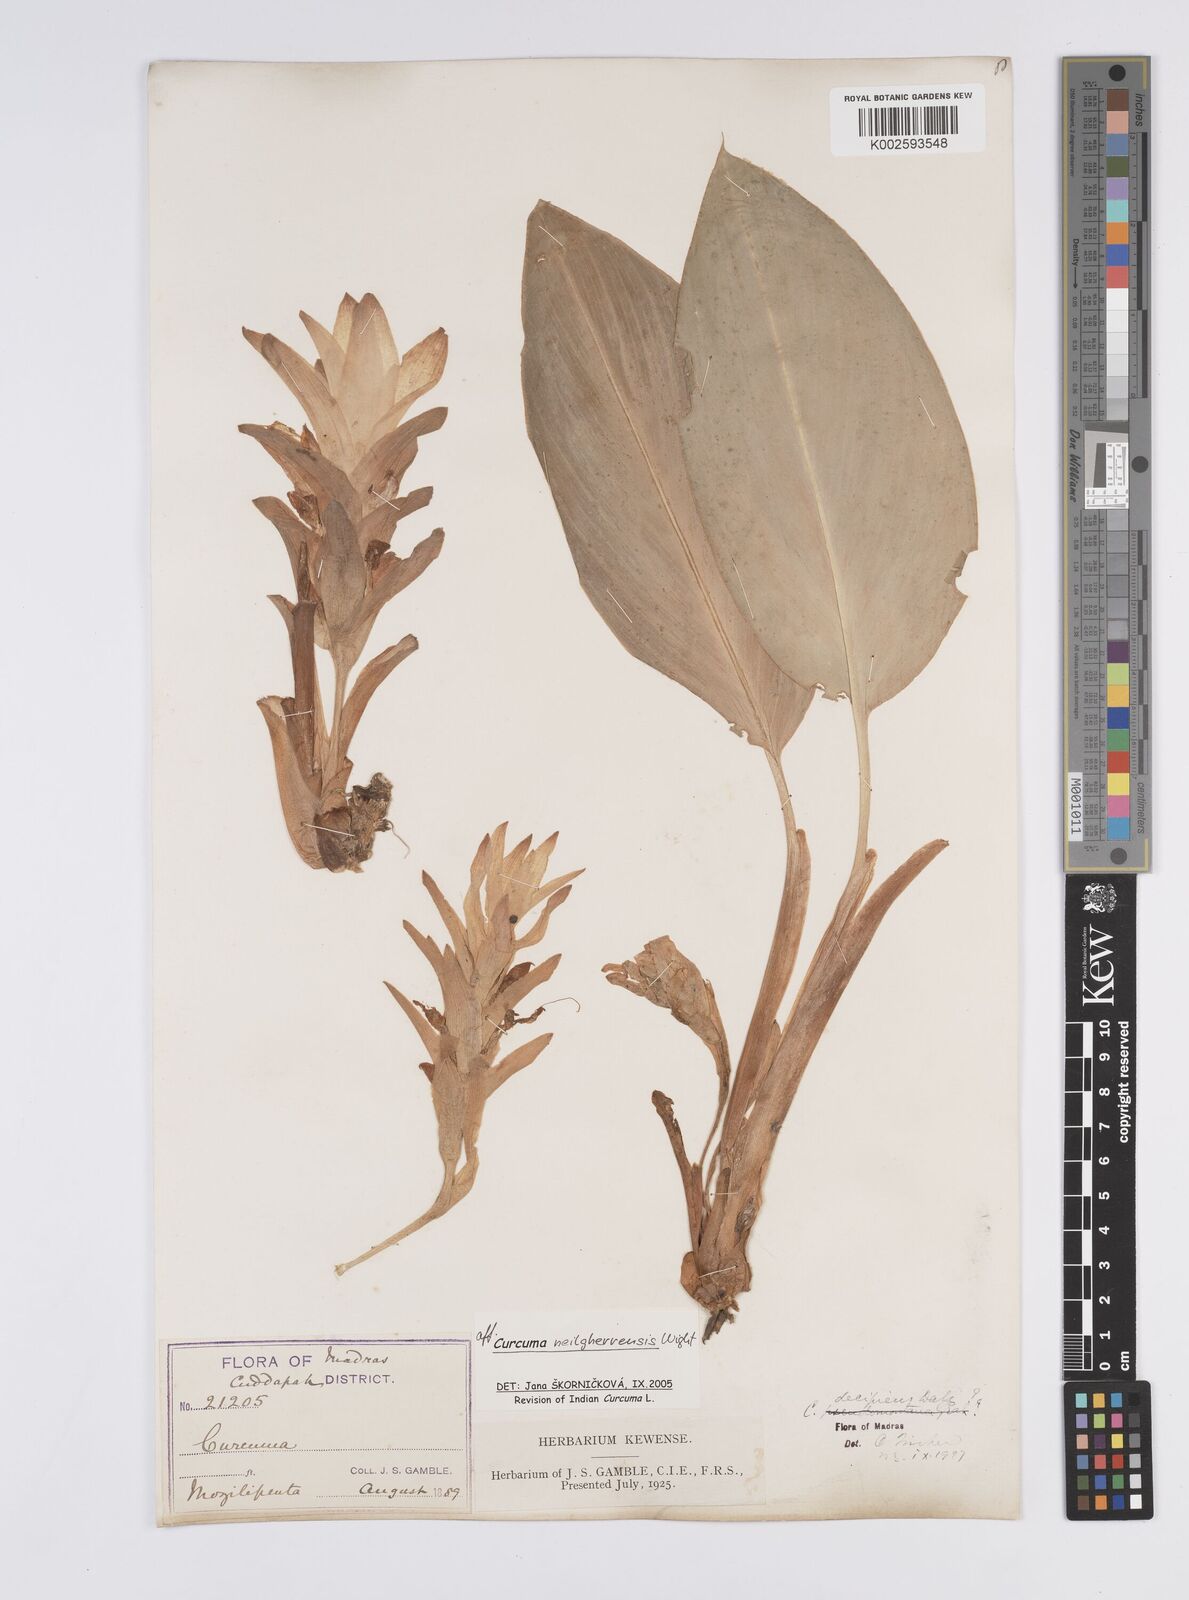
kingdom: Plantae
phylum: Tracheophyta
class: Liliopsida
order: Zingiberales
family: Zingiberaceae
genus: Curcuma
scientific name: Curcuma neilgherrensis
